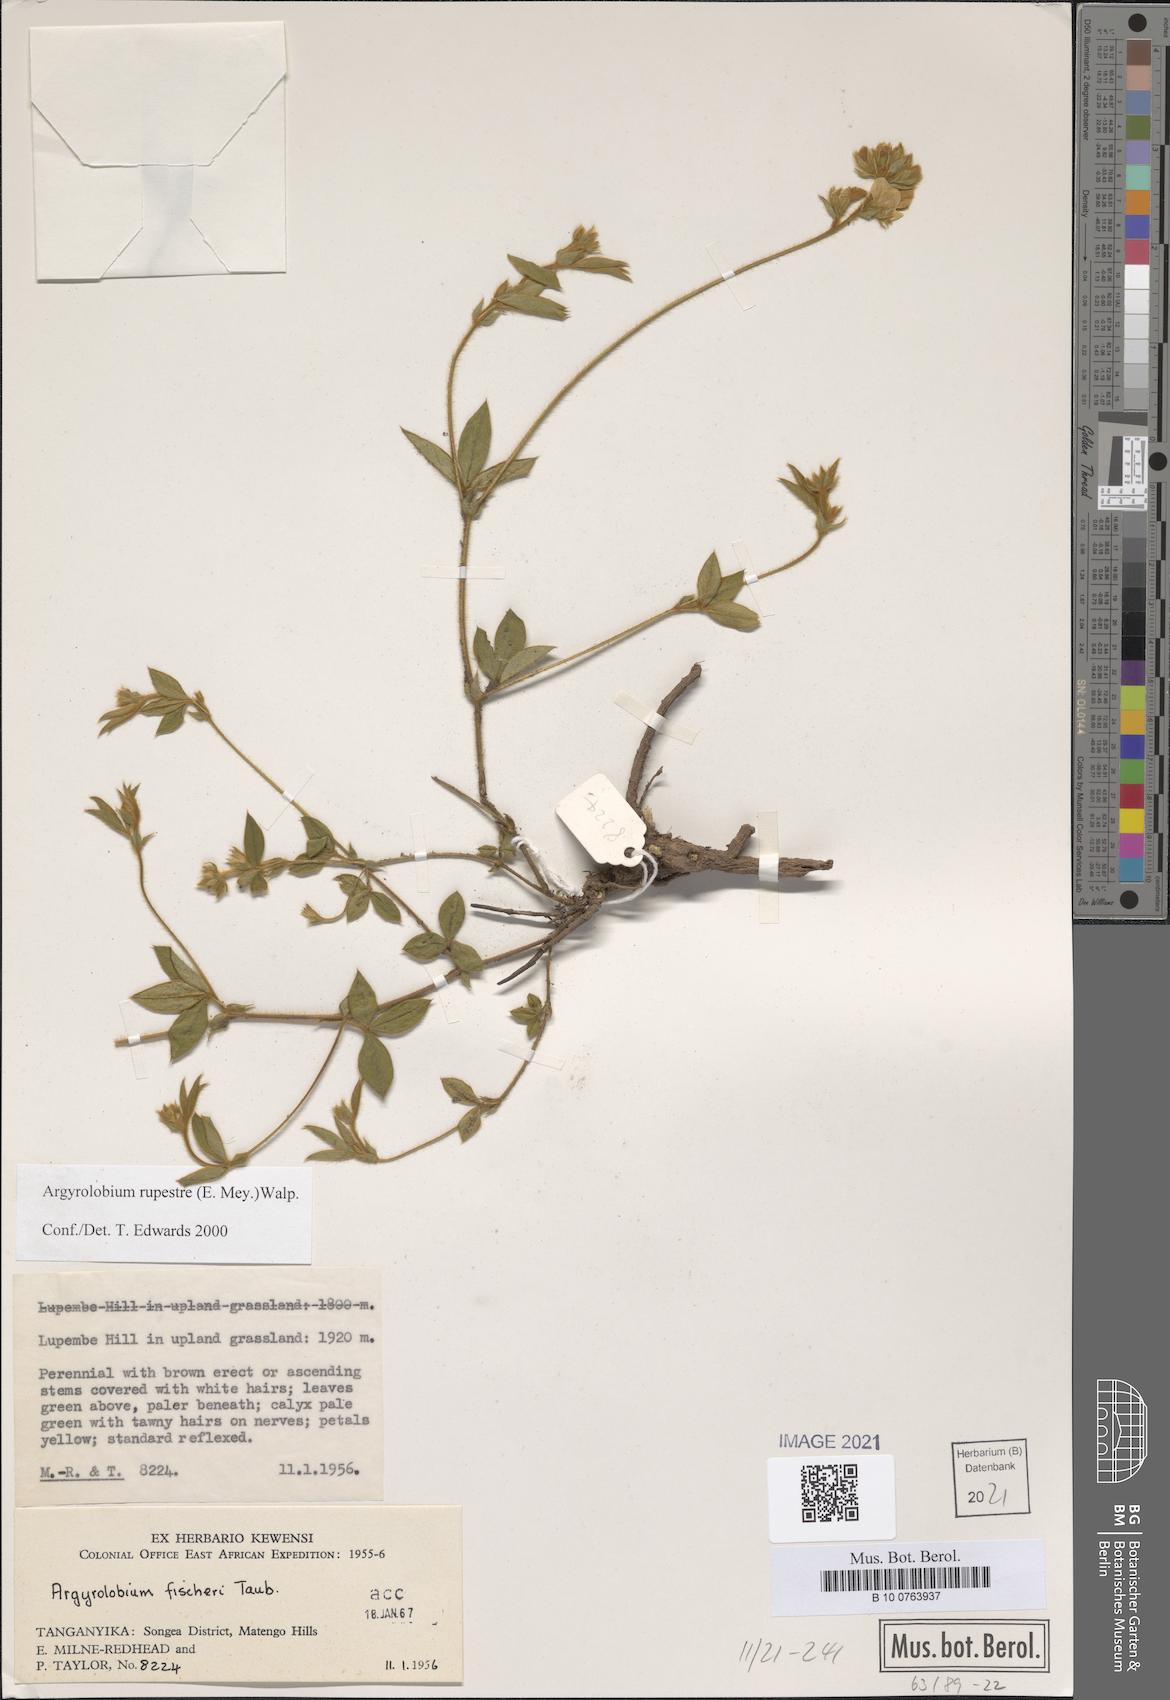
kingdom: Plantae
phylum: Tracheophyta
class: Magnoliopsida
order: Fabales
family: Fabaceae
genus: Argyrolobium
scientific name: Argyrolobium rupestre
